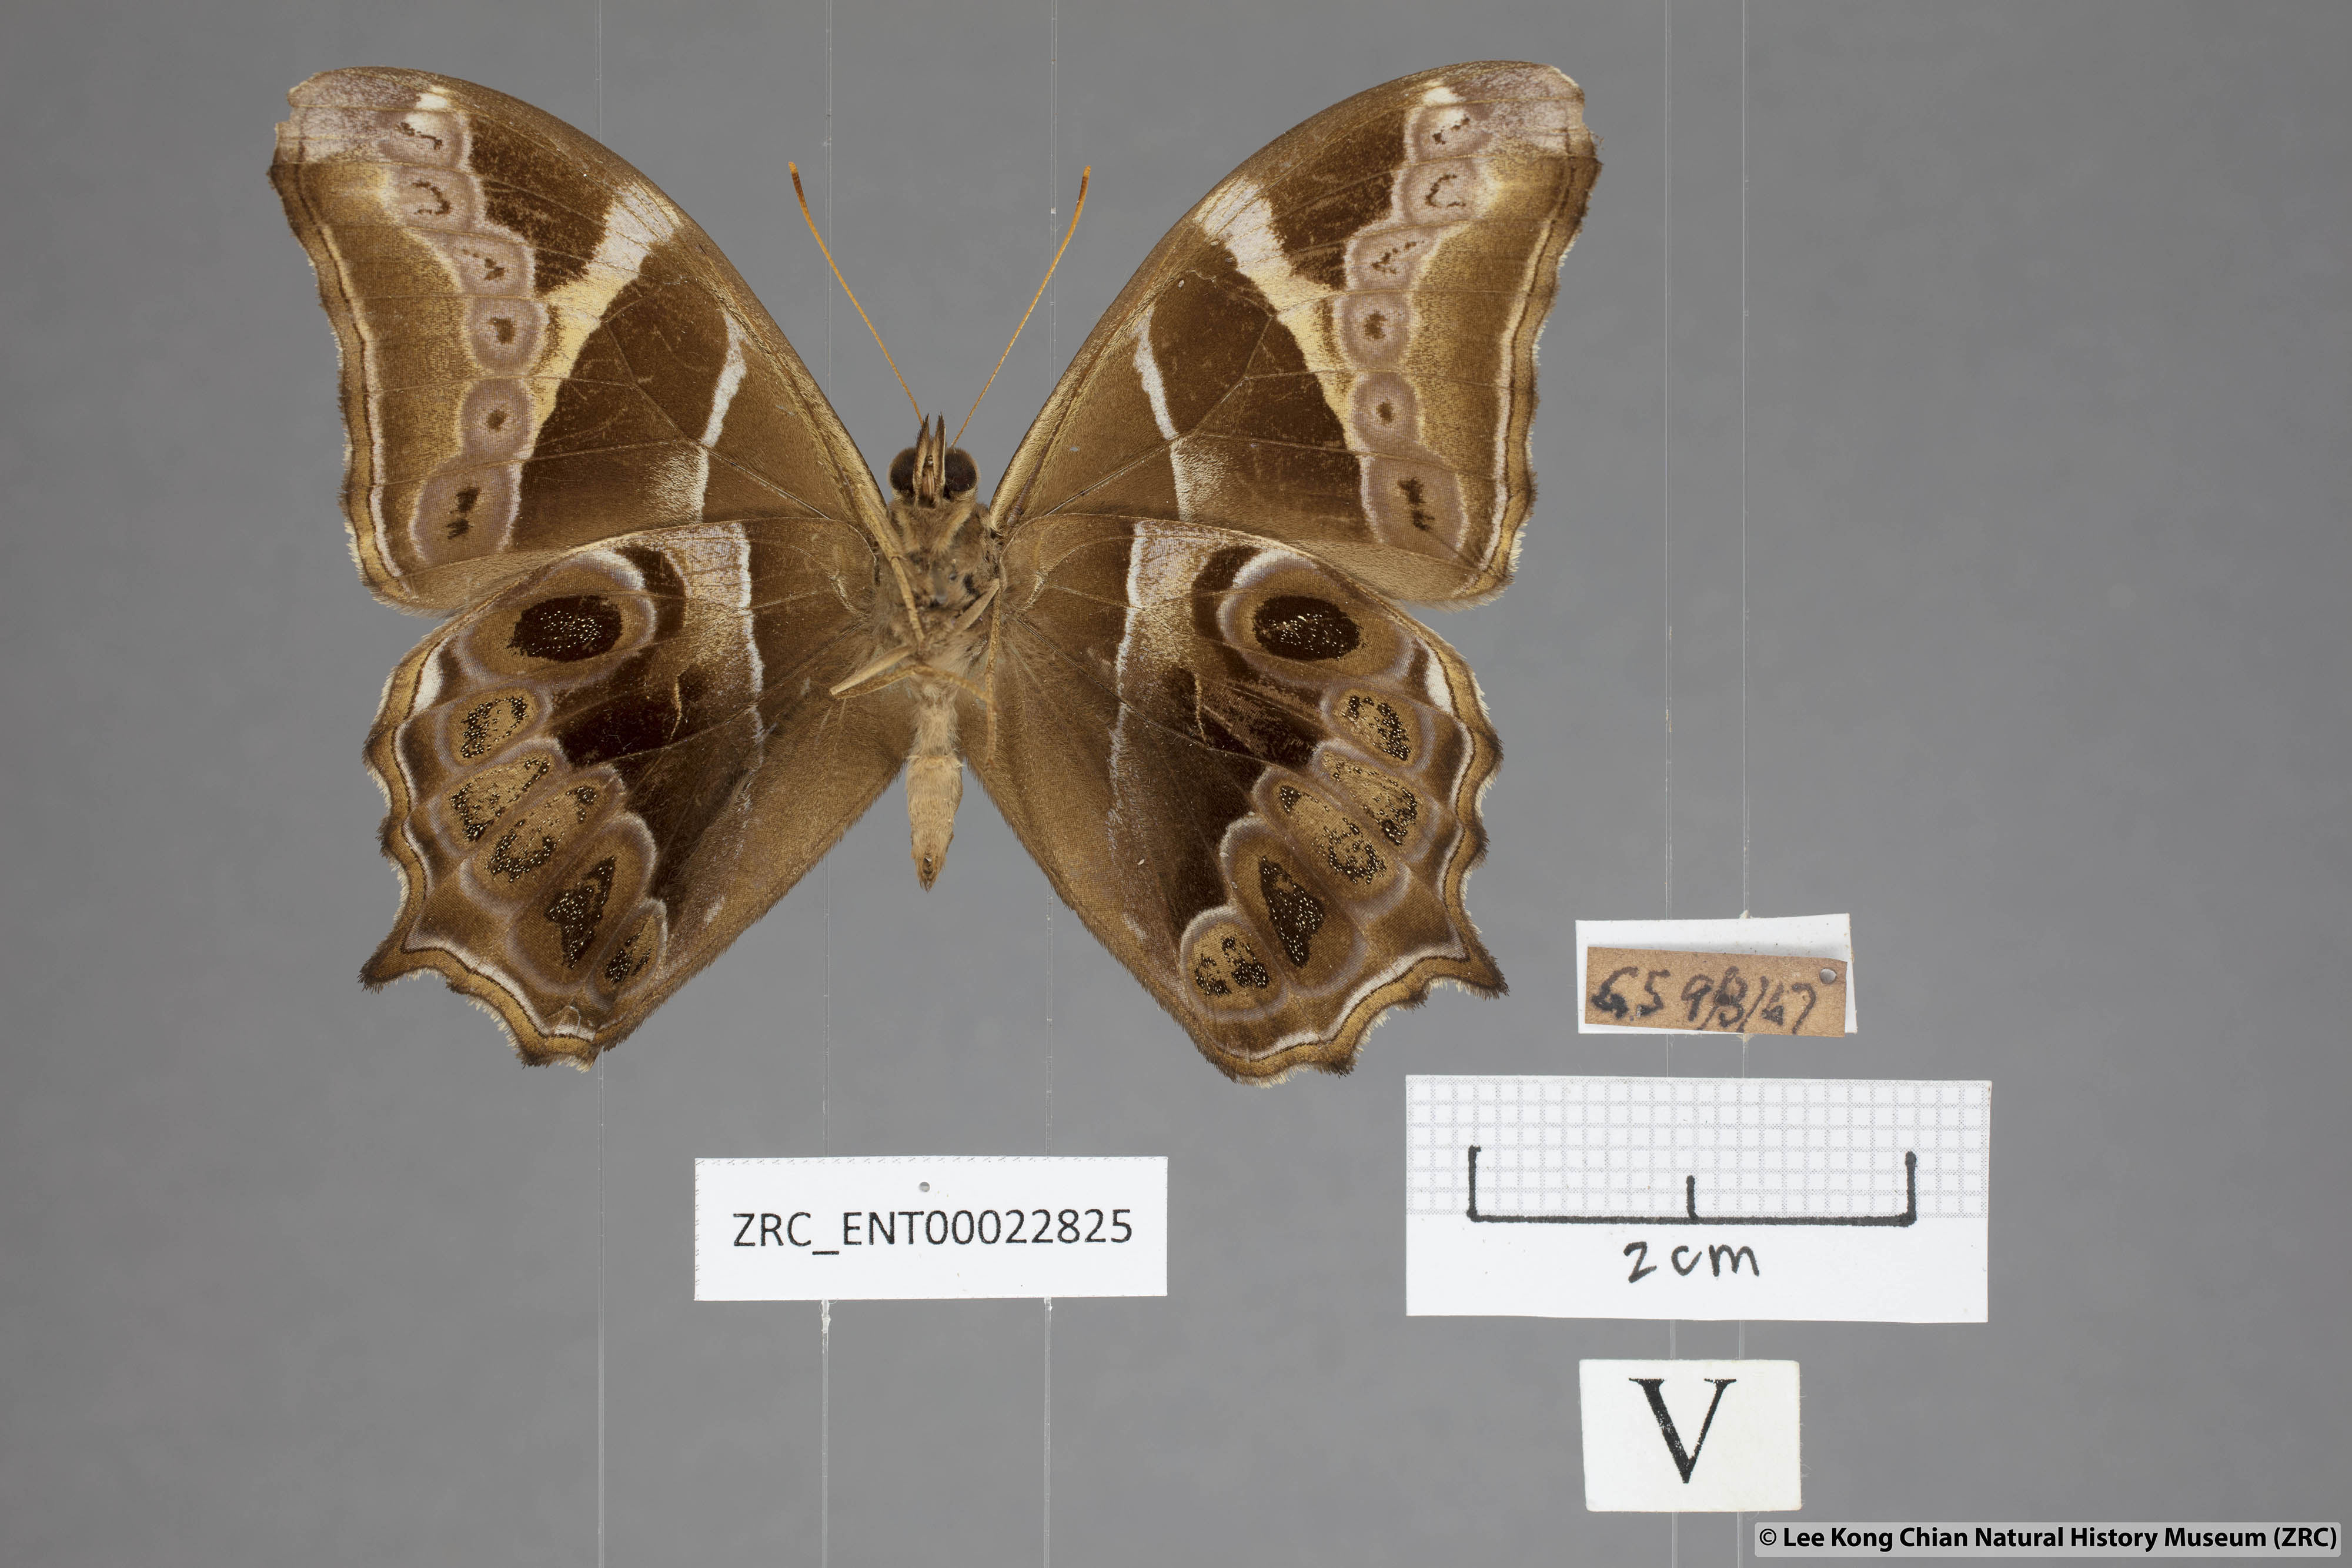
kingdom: Animalia
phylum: Arthropoda
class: Insecta
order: Lepidoptera
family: Nymphalidae
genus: Lethe
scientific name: Lethe europa
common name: Bamboo treebrown
